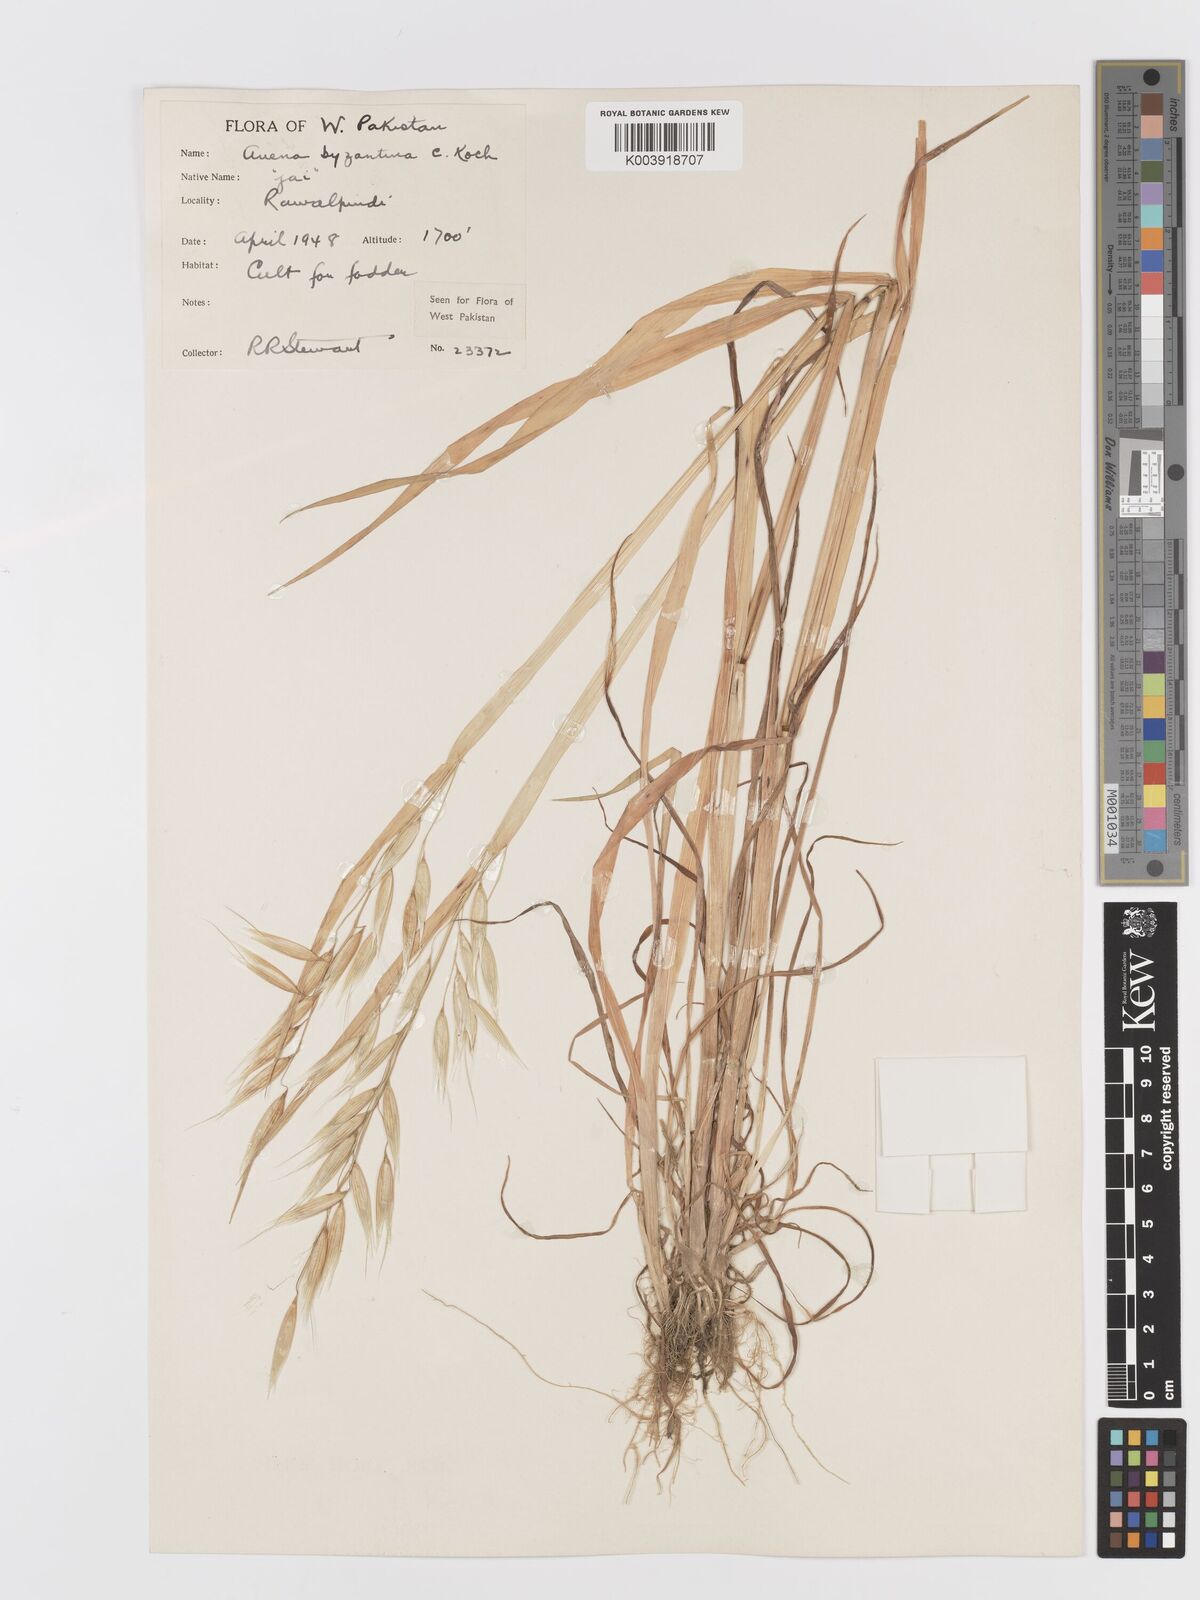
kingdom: Plantae
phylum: Tracheophyta
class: Liliopsida
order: Poales
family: Poaceae
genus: Avena
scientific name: Avena byzantina
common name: Algerian oat
